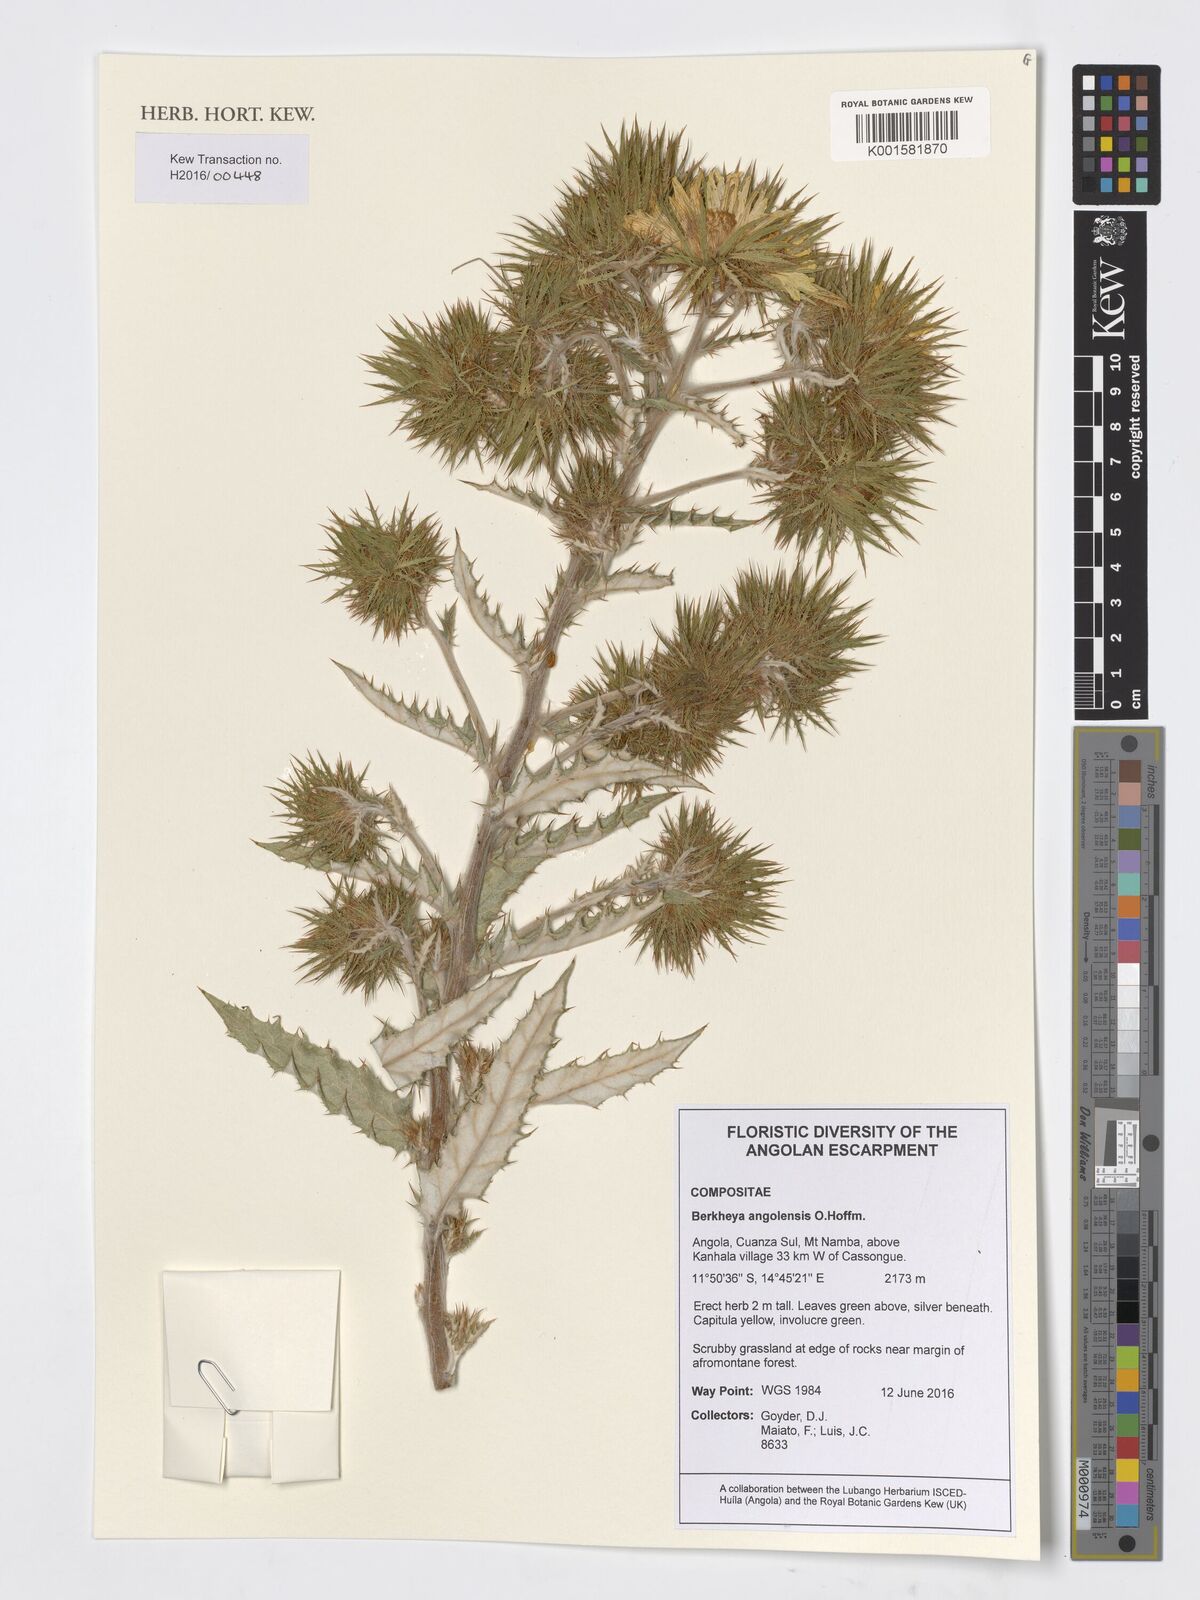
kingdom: Plantae
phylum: Tracheophyta
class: Magnoliopsida
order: Asterales
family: Asteraceae
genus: Berkheya
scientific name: Berkheya angolensis
